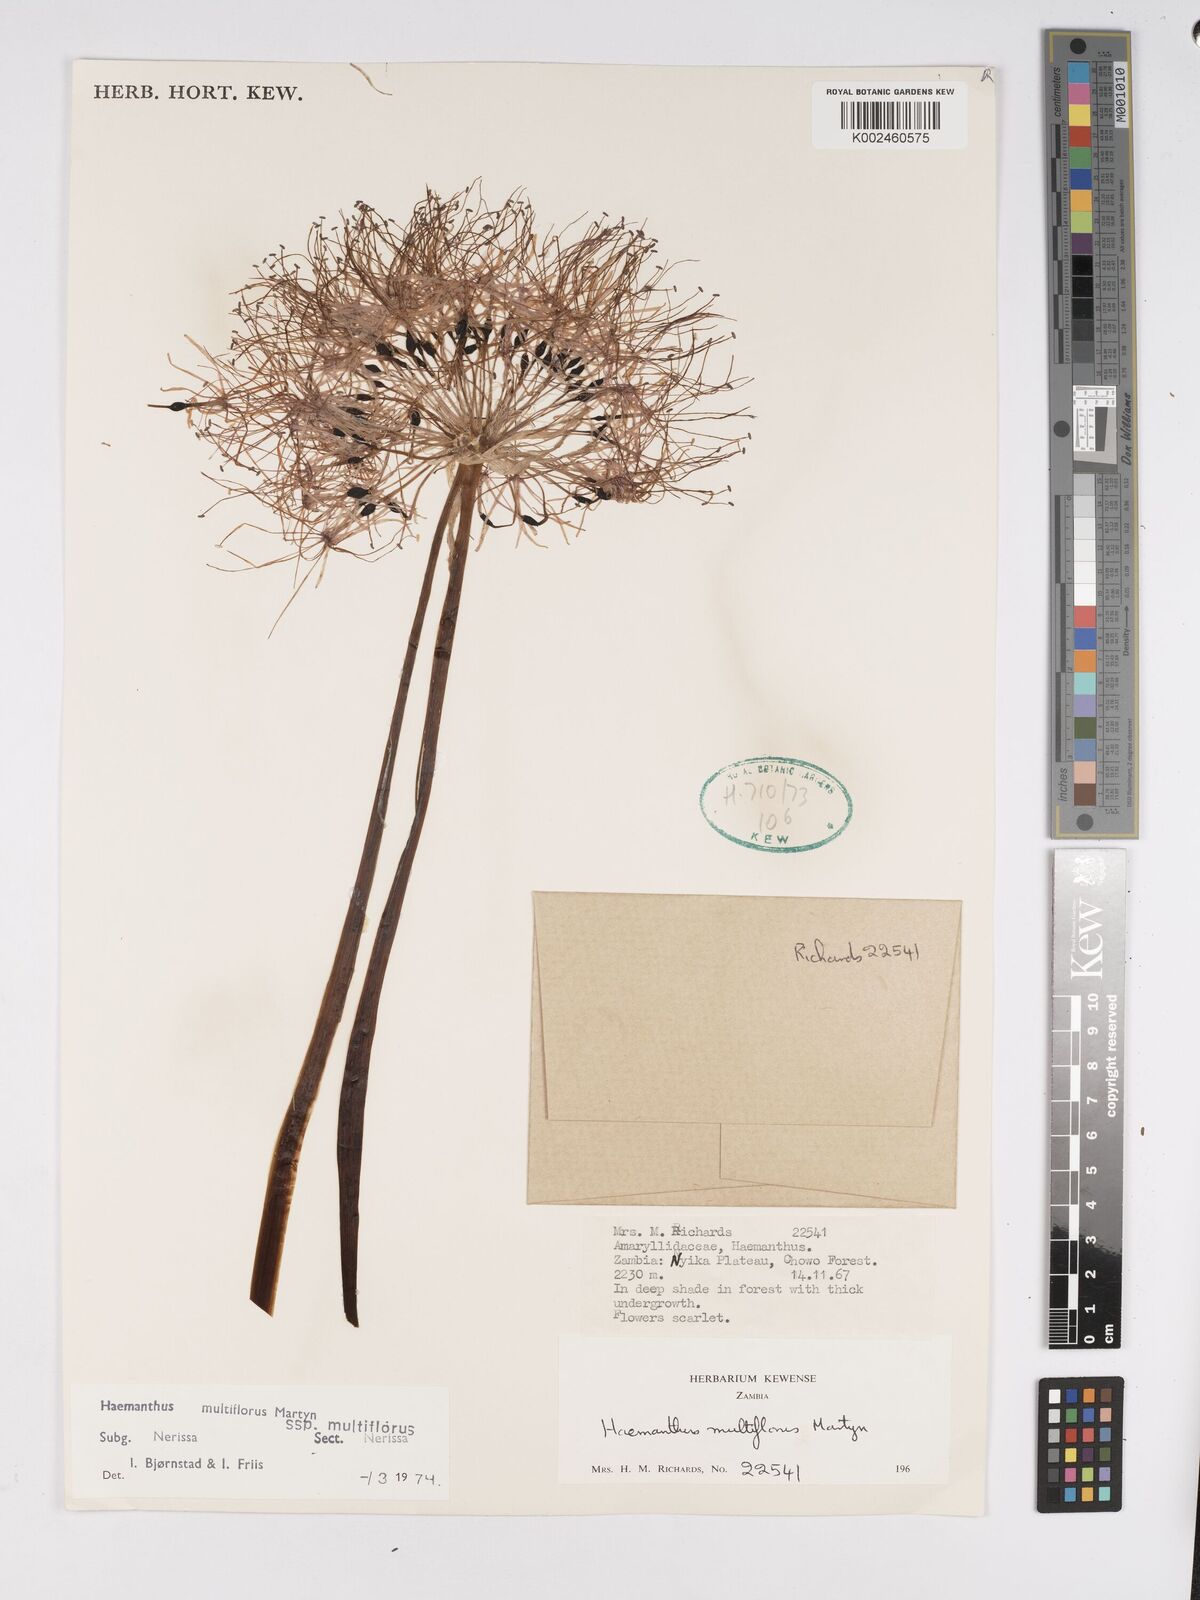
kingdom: Plantae
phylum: Tracheophyta
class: Liliopsida
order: Asparagales
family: Amaryllidaceae
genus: Scadoxus
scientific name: Scadoxus multiflorus
